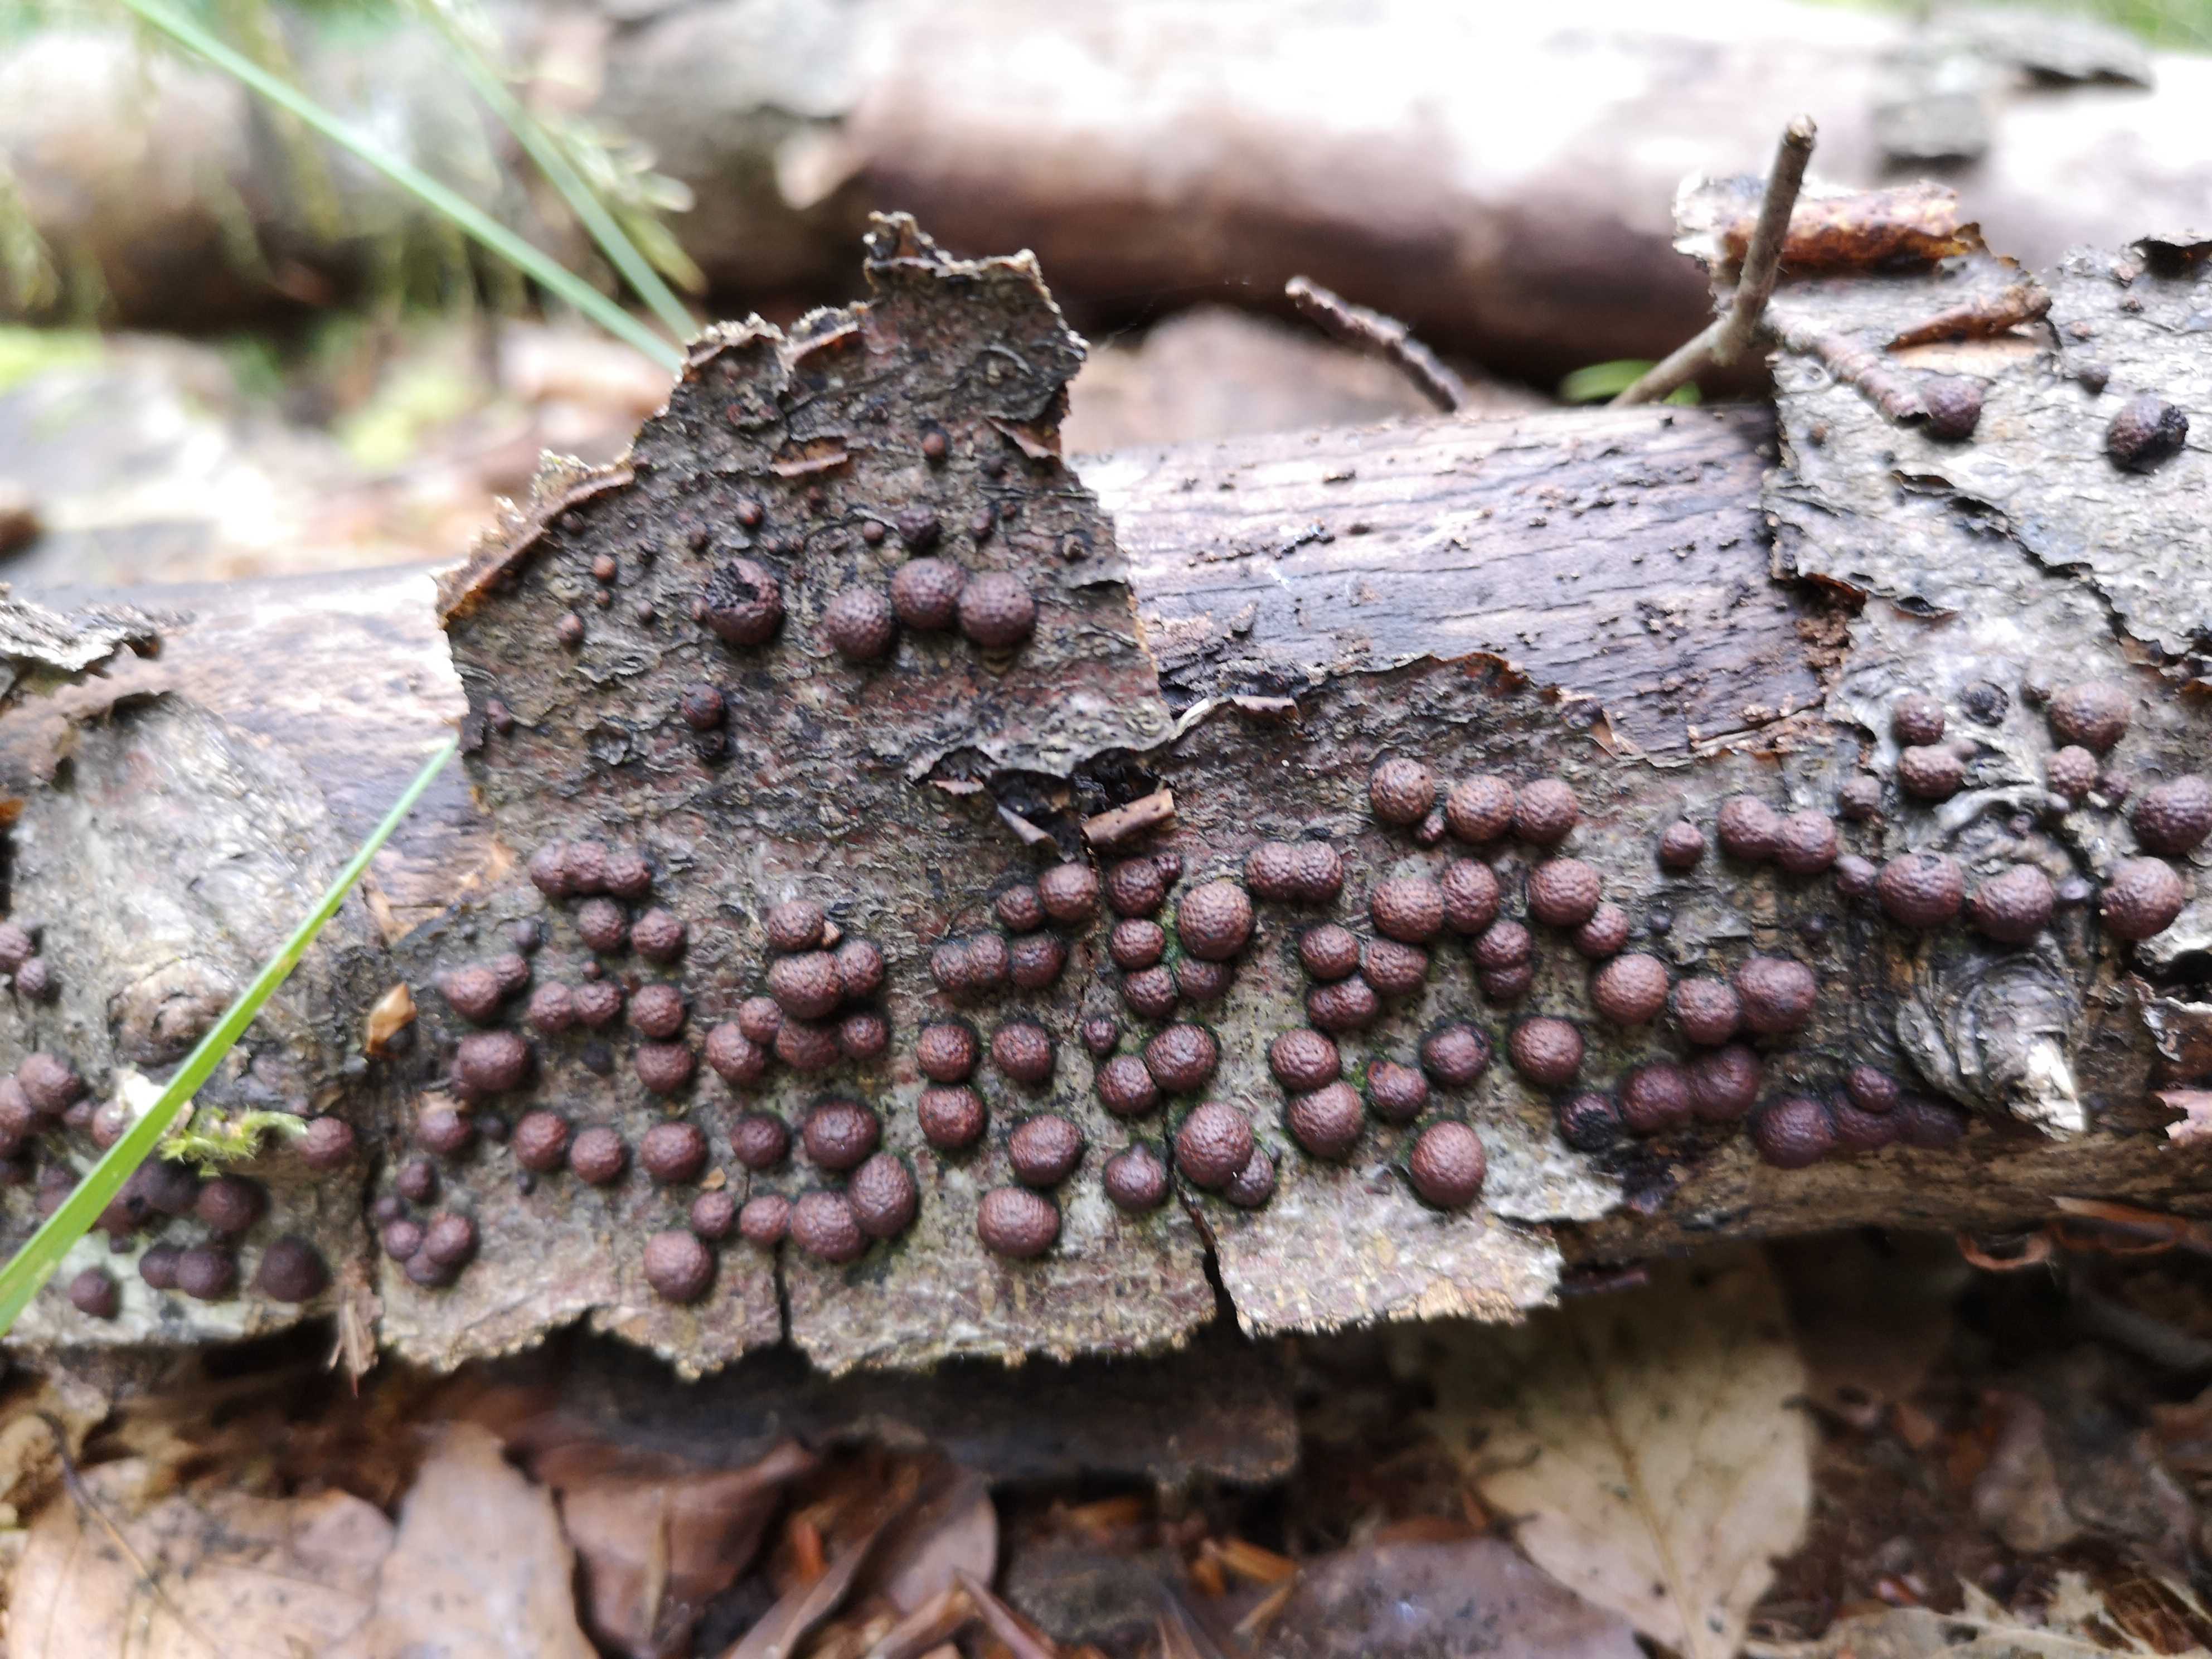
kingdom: Fungi
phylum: Ascomycota
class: Sordariomycetes
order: Xylariales
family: Hypoxylaceae
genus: Hypoxylon
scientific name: Hypoxylon fragiforme
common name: kuljordbær
